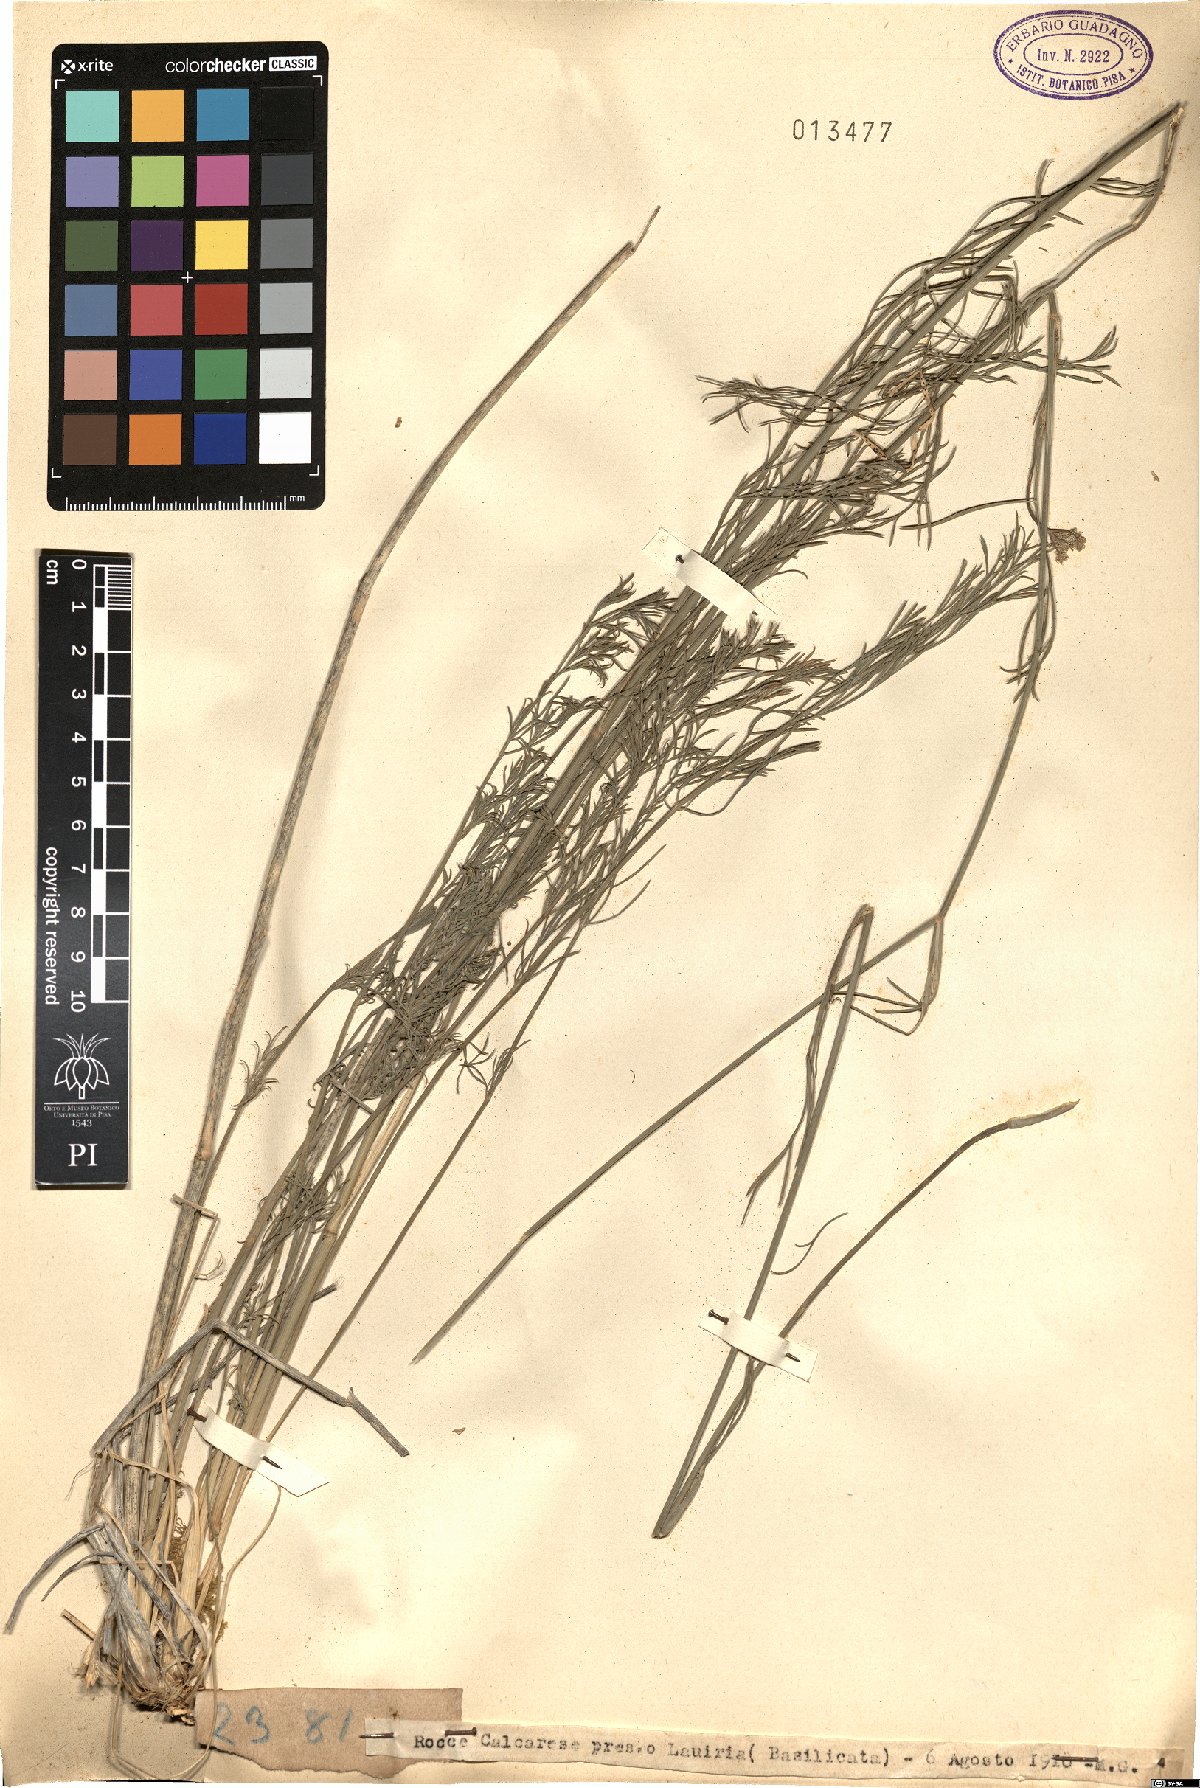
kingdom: Plantae
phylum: Tracheophyta
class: Magnoliopsida
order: Apiales
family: Apiaceae
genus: Seseli
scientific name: Seseli
